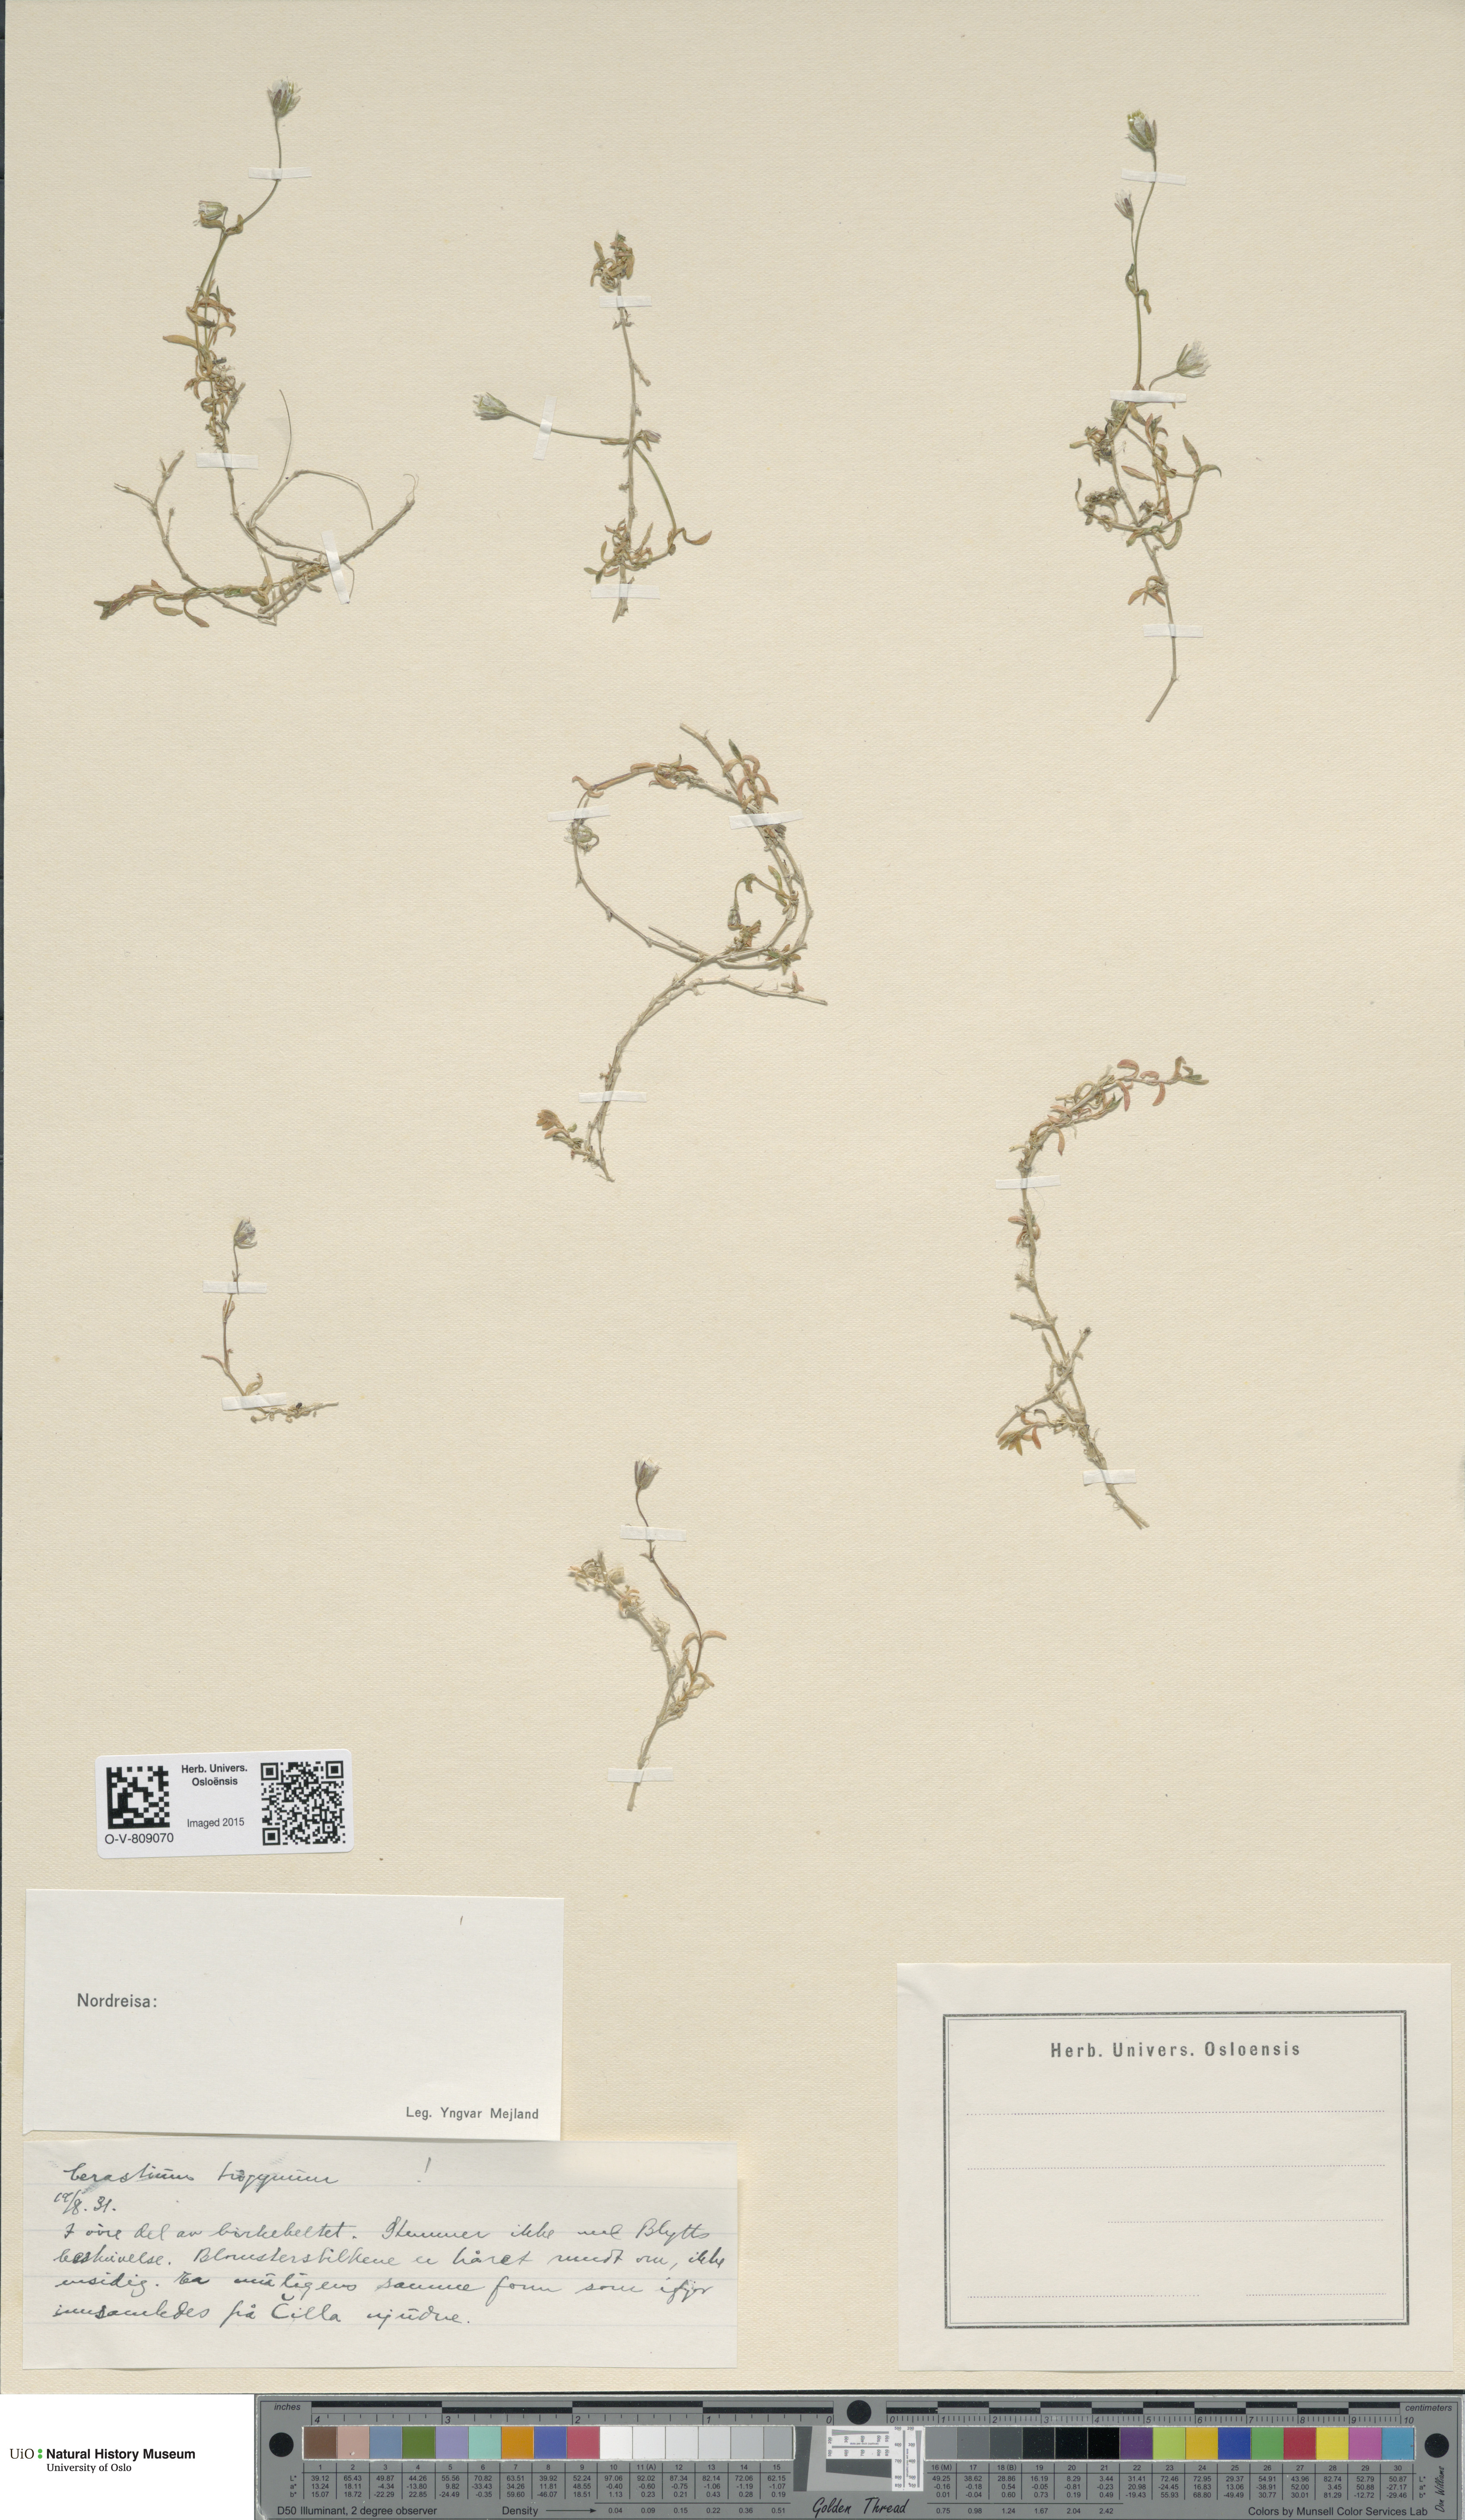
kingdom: Plantae
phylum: Tracheophyta
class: Magnoliopsida
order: Caryophyllales
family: Caryophyllaceae
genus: Dichodon
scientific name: Dichodon cerastoides
